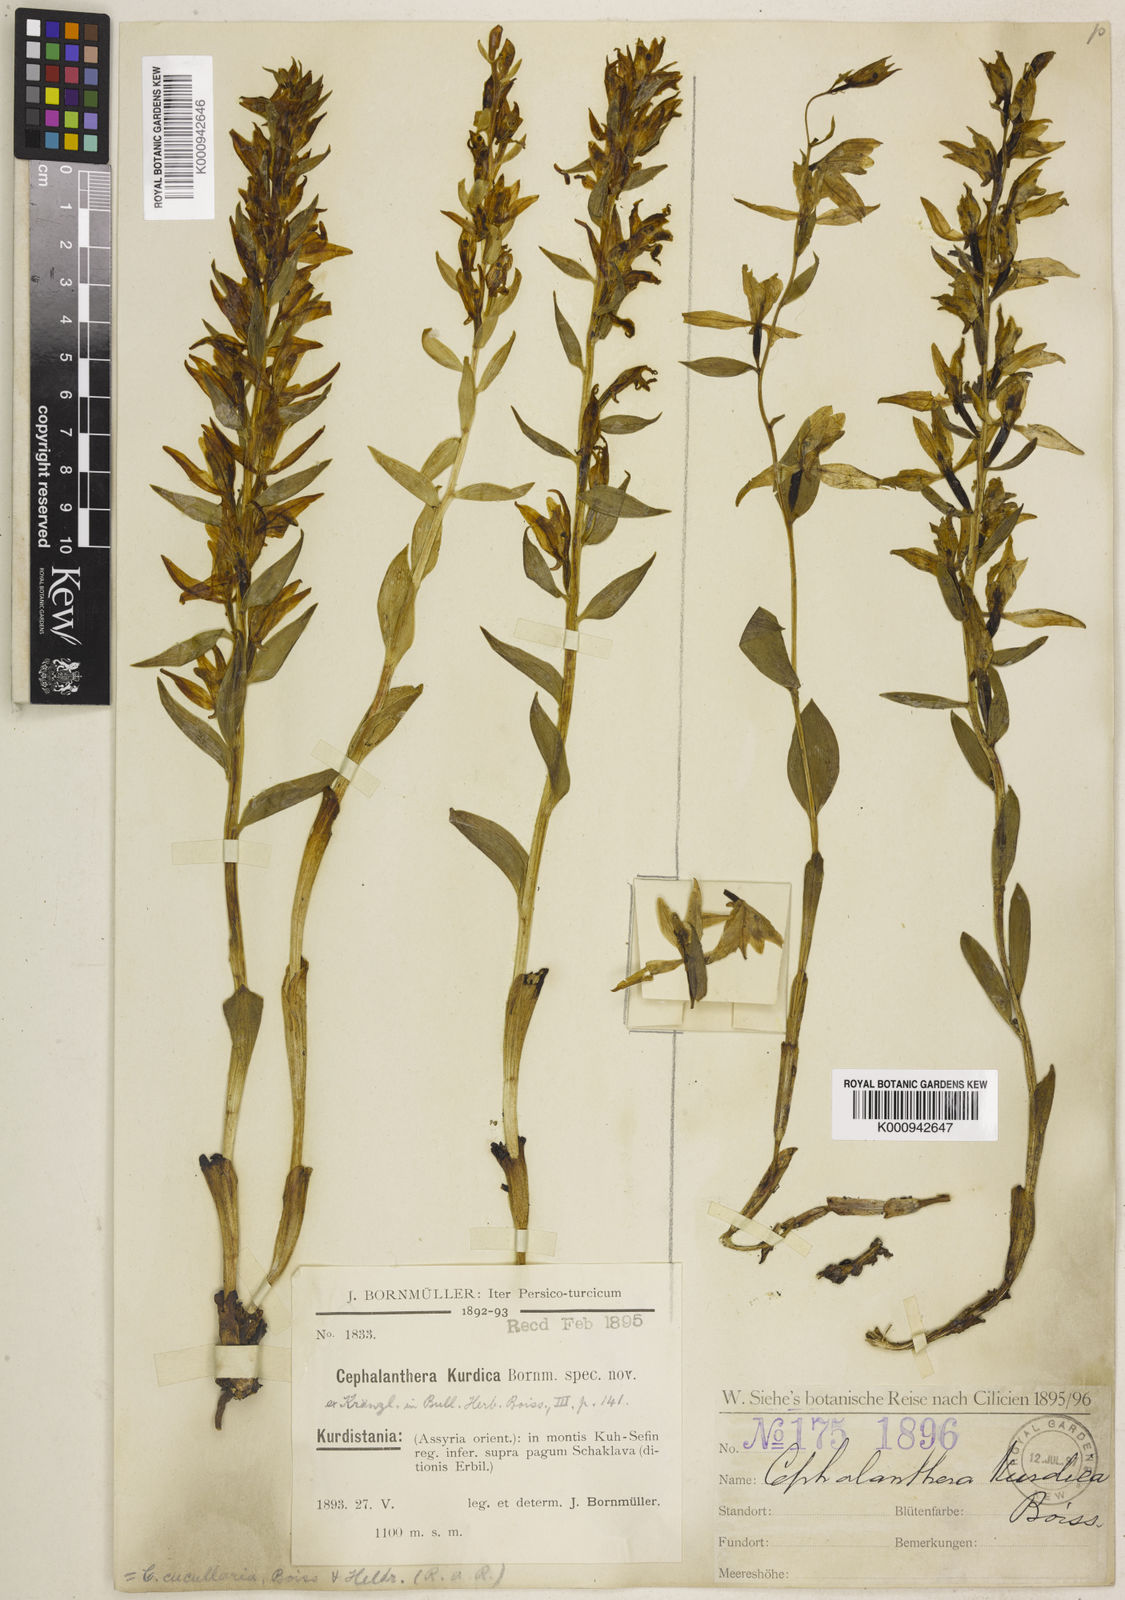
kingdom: Plantae
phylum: Tracheophyta
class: Liliopsida
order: Asparagales
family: Orchidaceae
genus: Cephalanthera
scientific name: Cephalanthera kurdica
